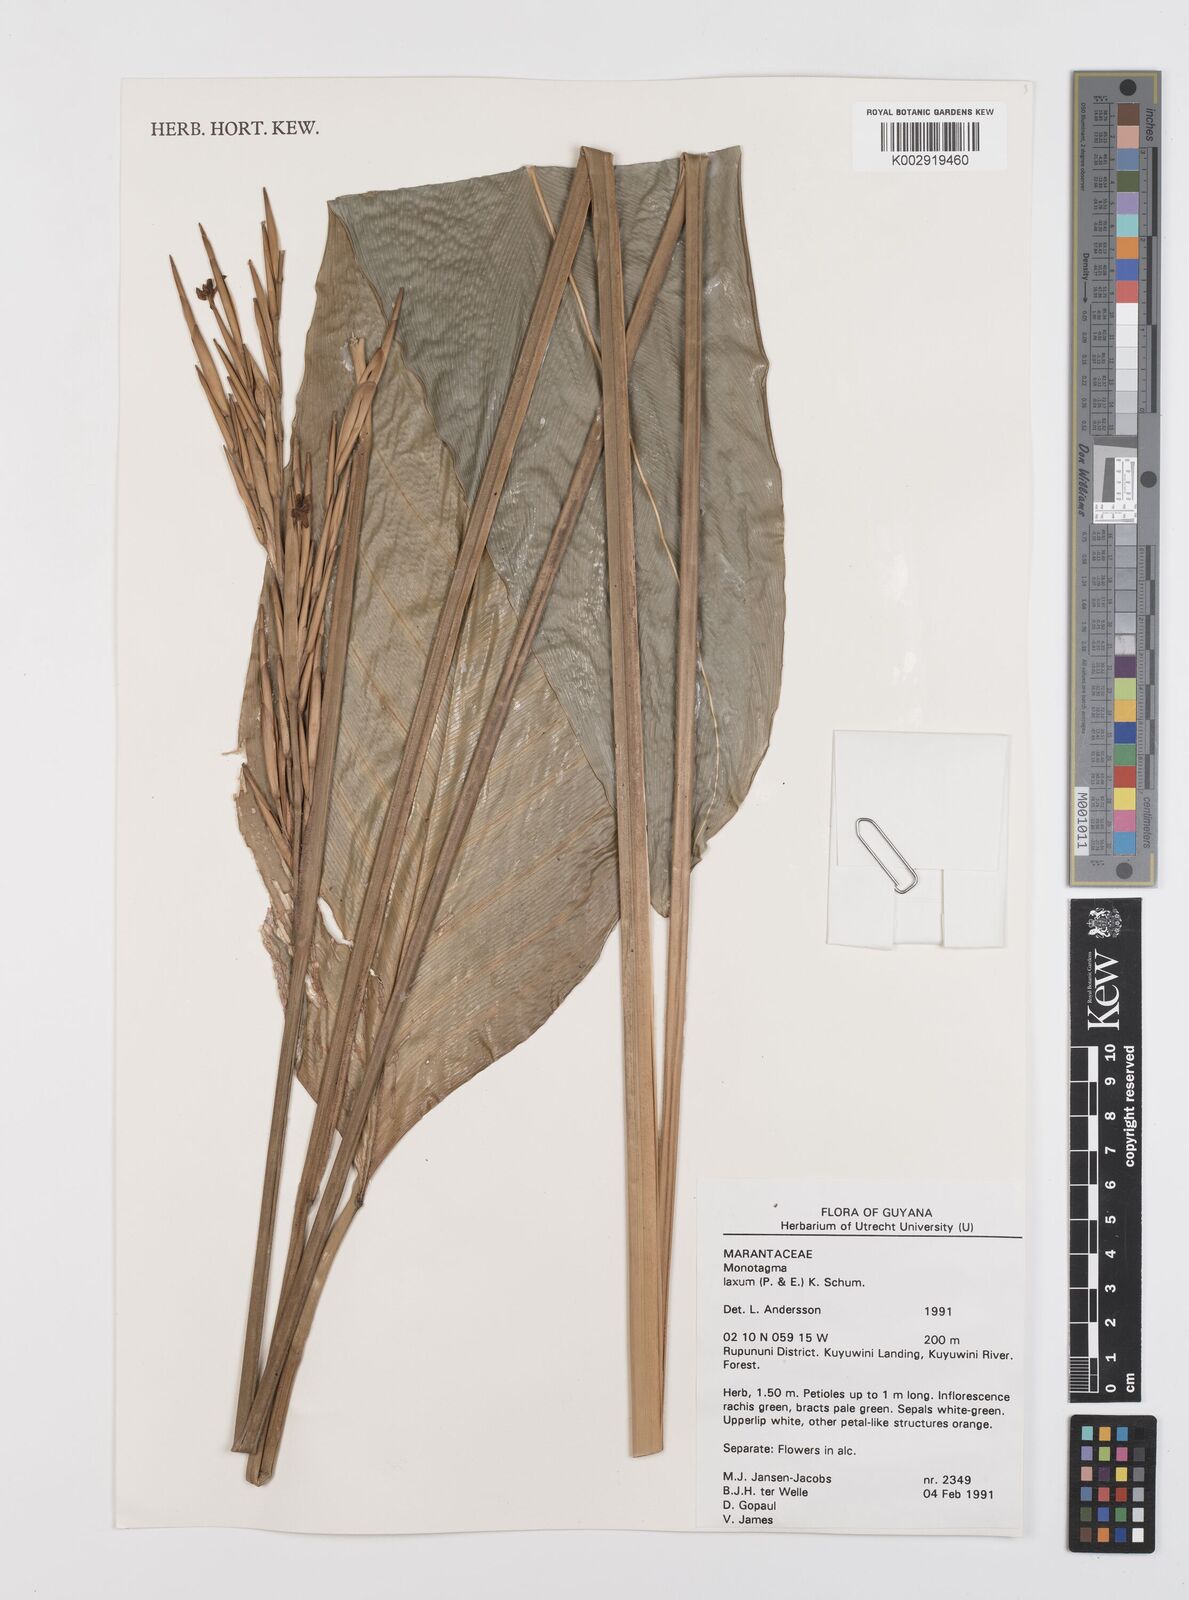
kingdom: Plantae
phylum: Tracheophyta
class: Liliopsida
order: Zingiberales
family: Marantaceae
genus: Monotagma
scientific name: Monotagma laxum
